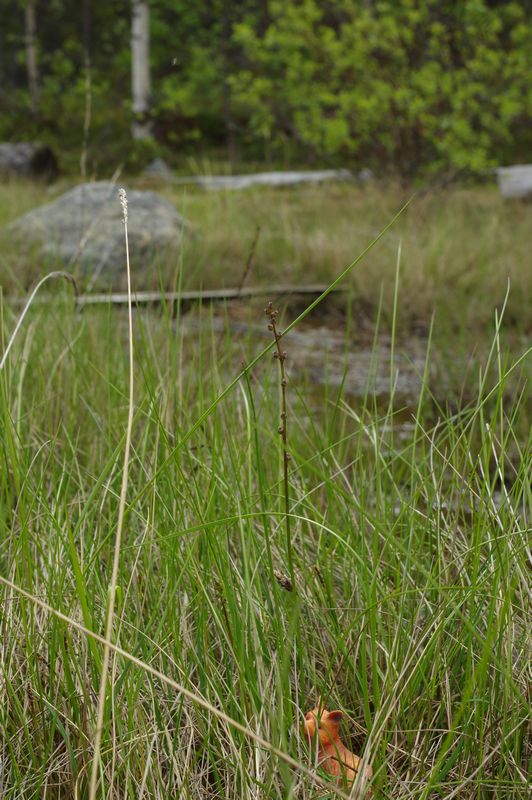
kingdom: Plantae
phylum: Tracheophyta
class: Liliopsida
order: Alismatales
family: Juncaginaceae
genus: Triglochin
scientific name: Triglochin palustris
